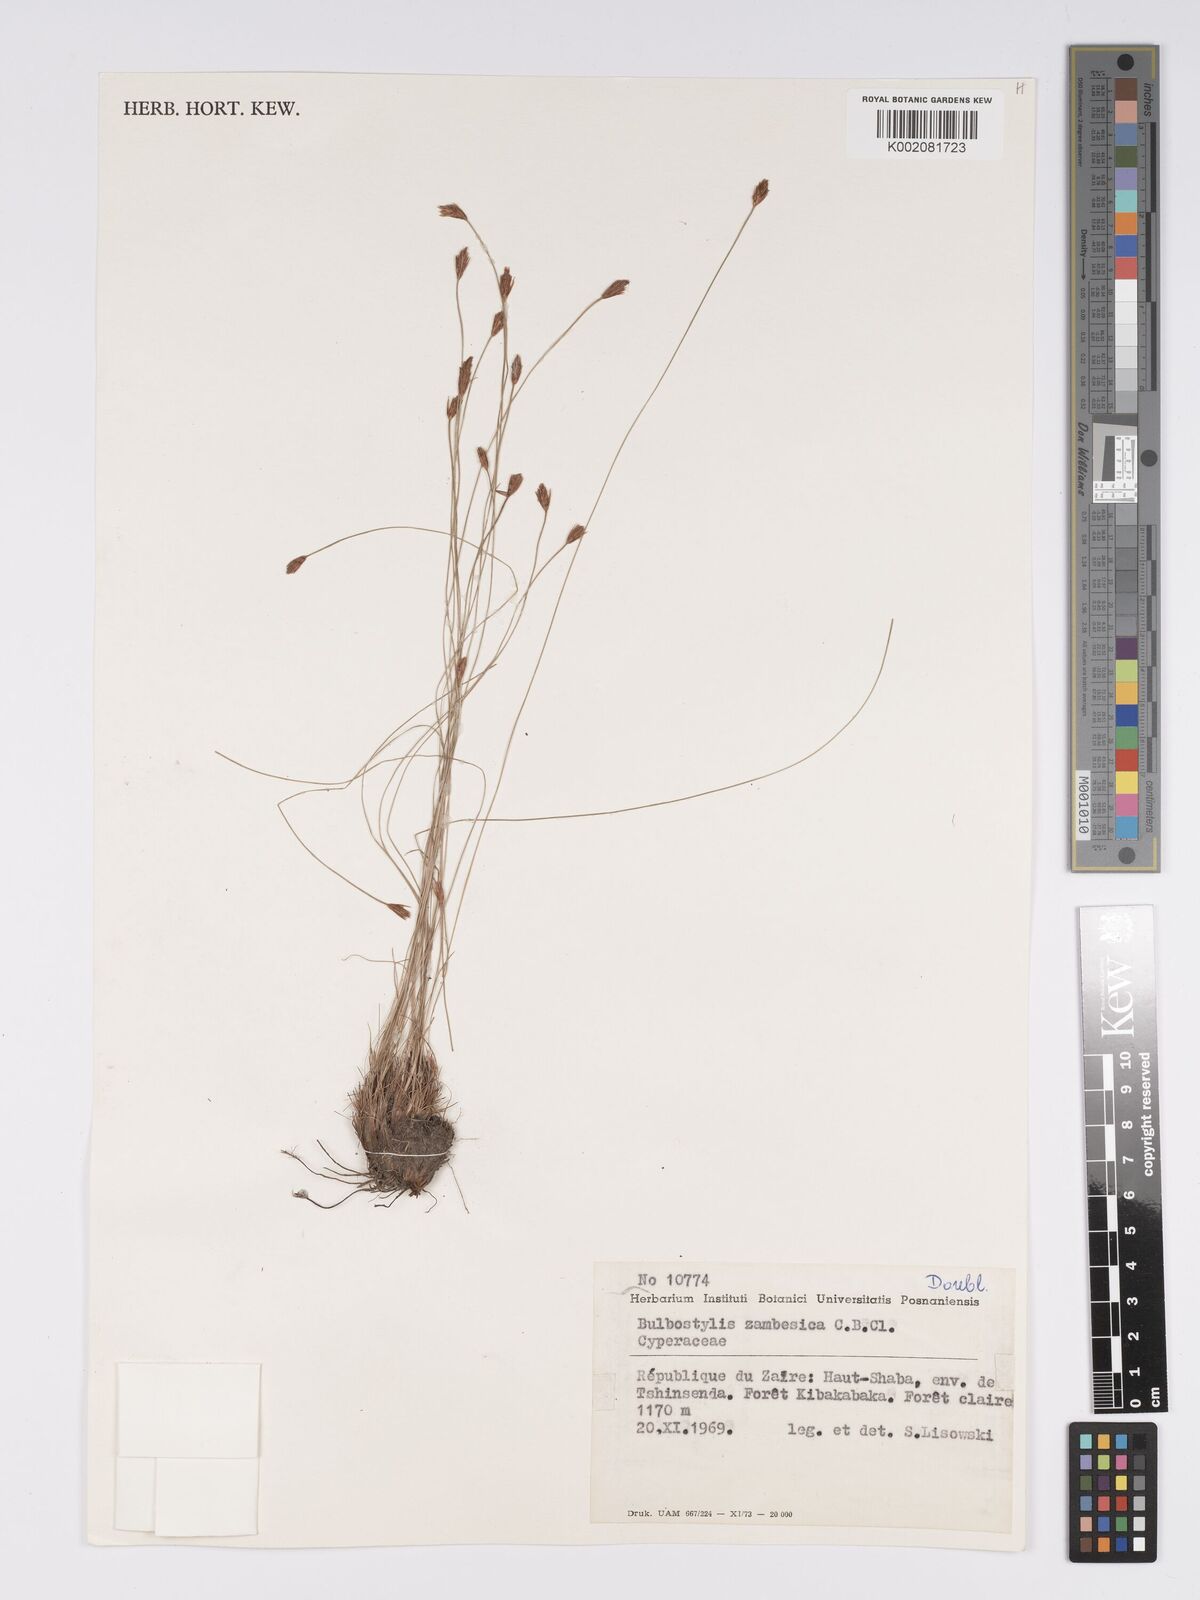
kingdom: Plantae
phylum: Tracheophyta
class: Liliopsida
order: Poales
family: Cyperaceae
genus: Bulbostylis
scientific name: Bulbostylis macra
